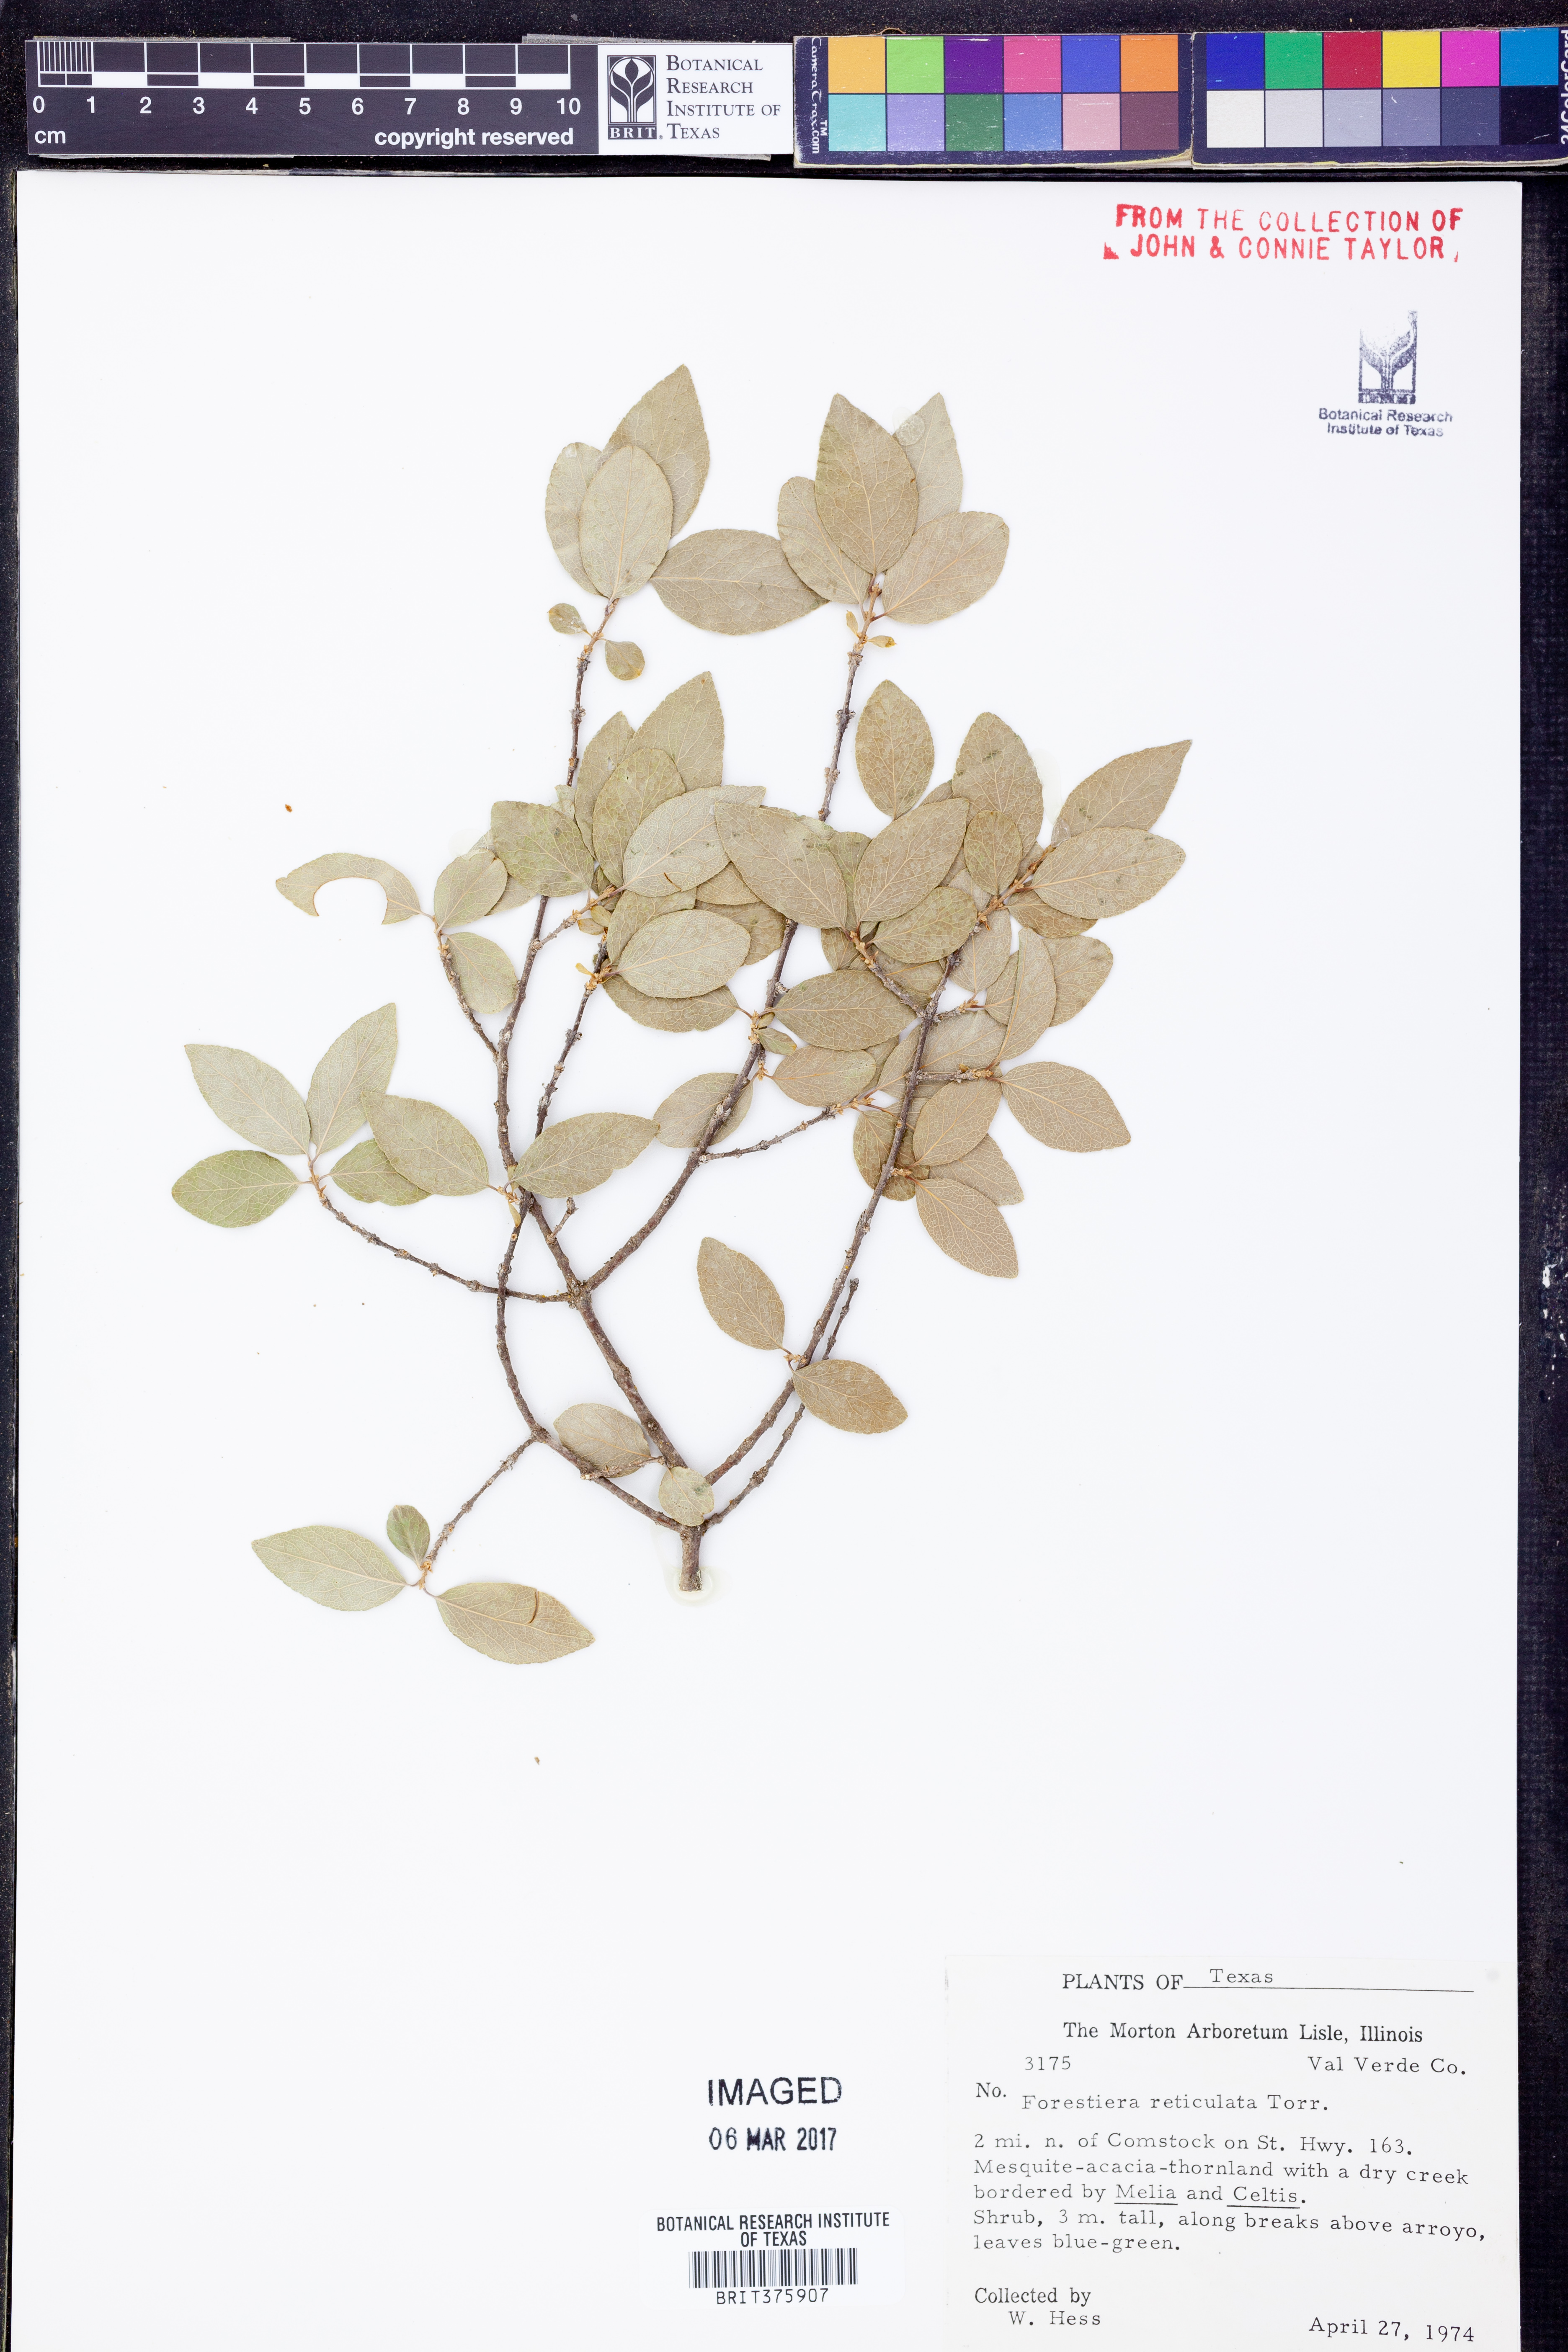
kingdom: Plantae
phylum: Tracheophyta
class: Magnoliopsida
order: Lamiales
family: Oleaceae
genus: Forestiera
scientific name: Forestiera reticulata
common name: Netleaf swamp-privet
